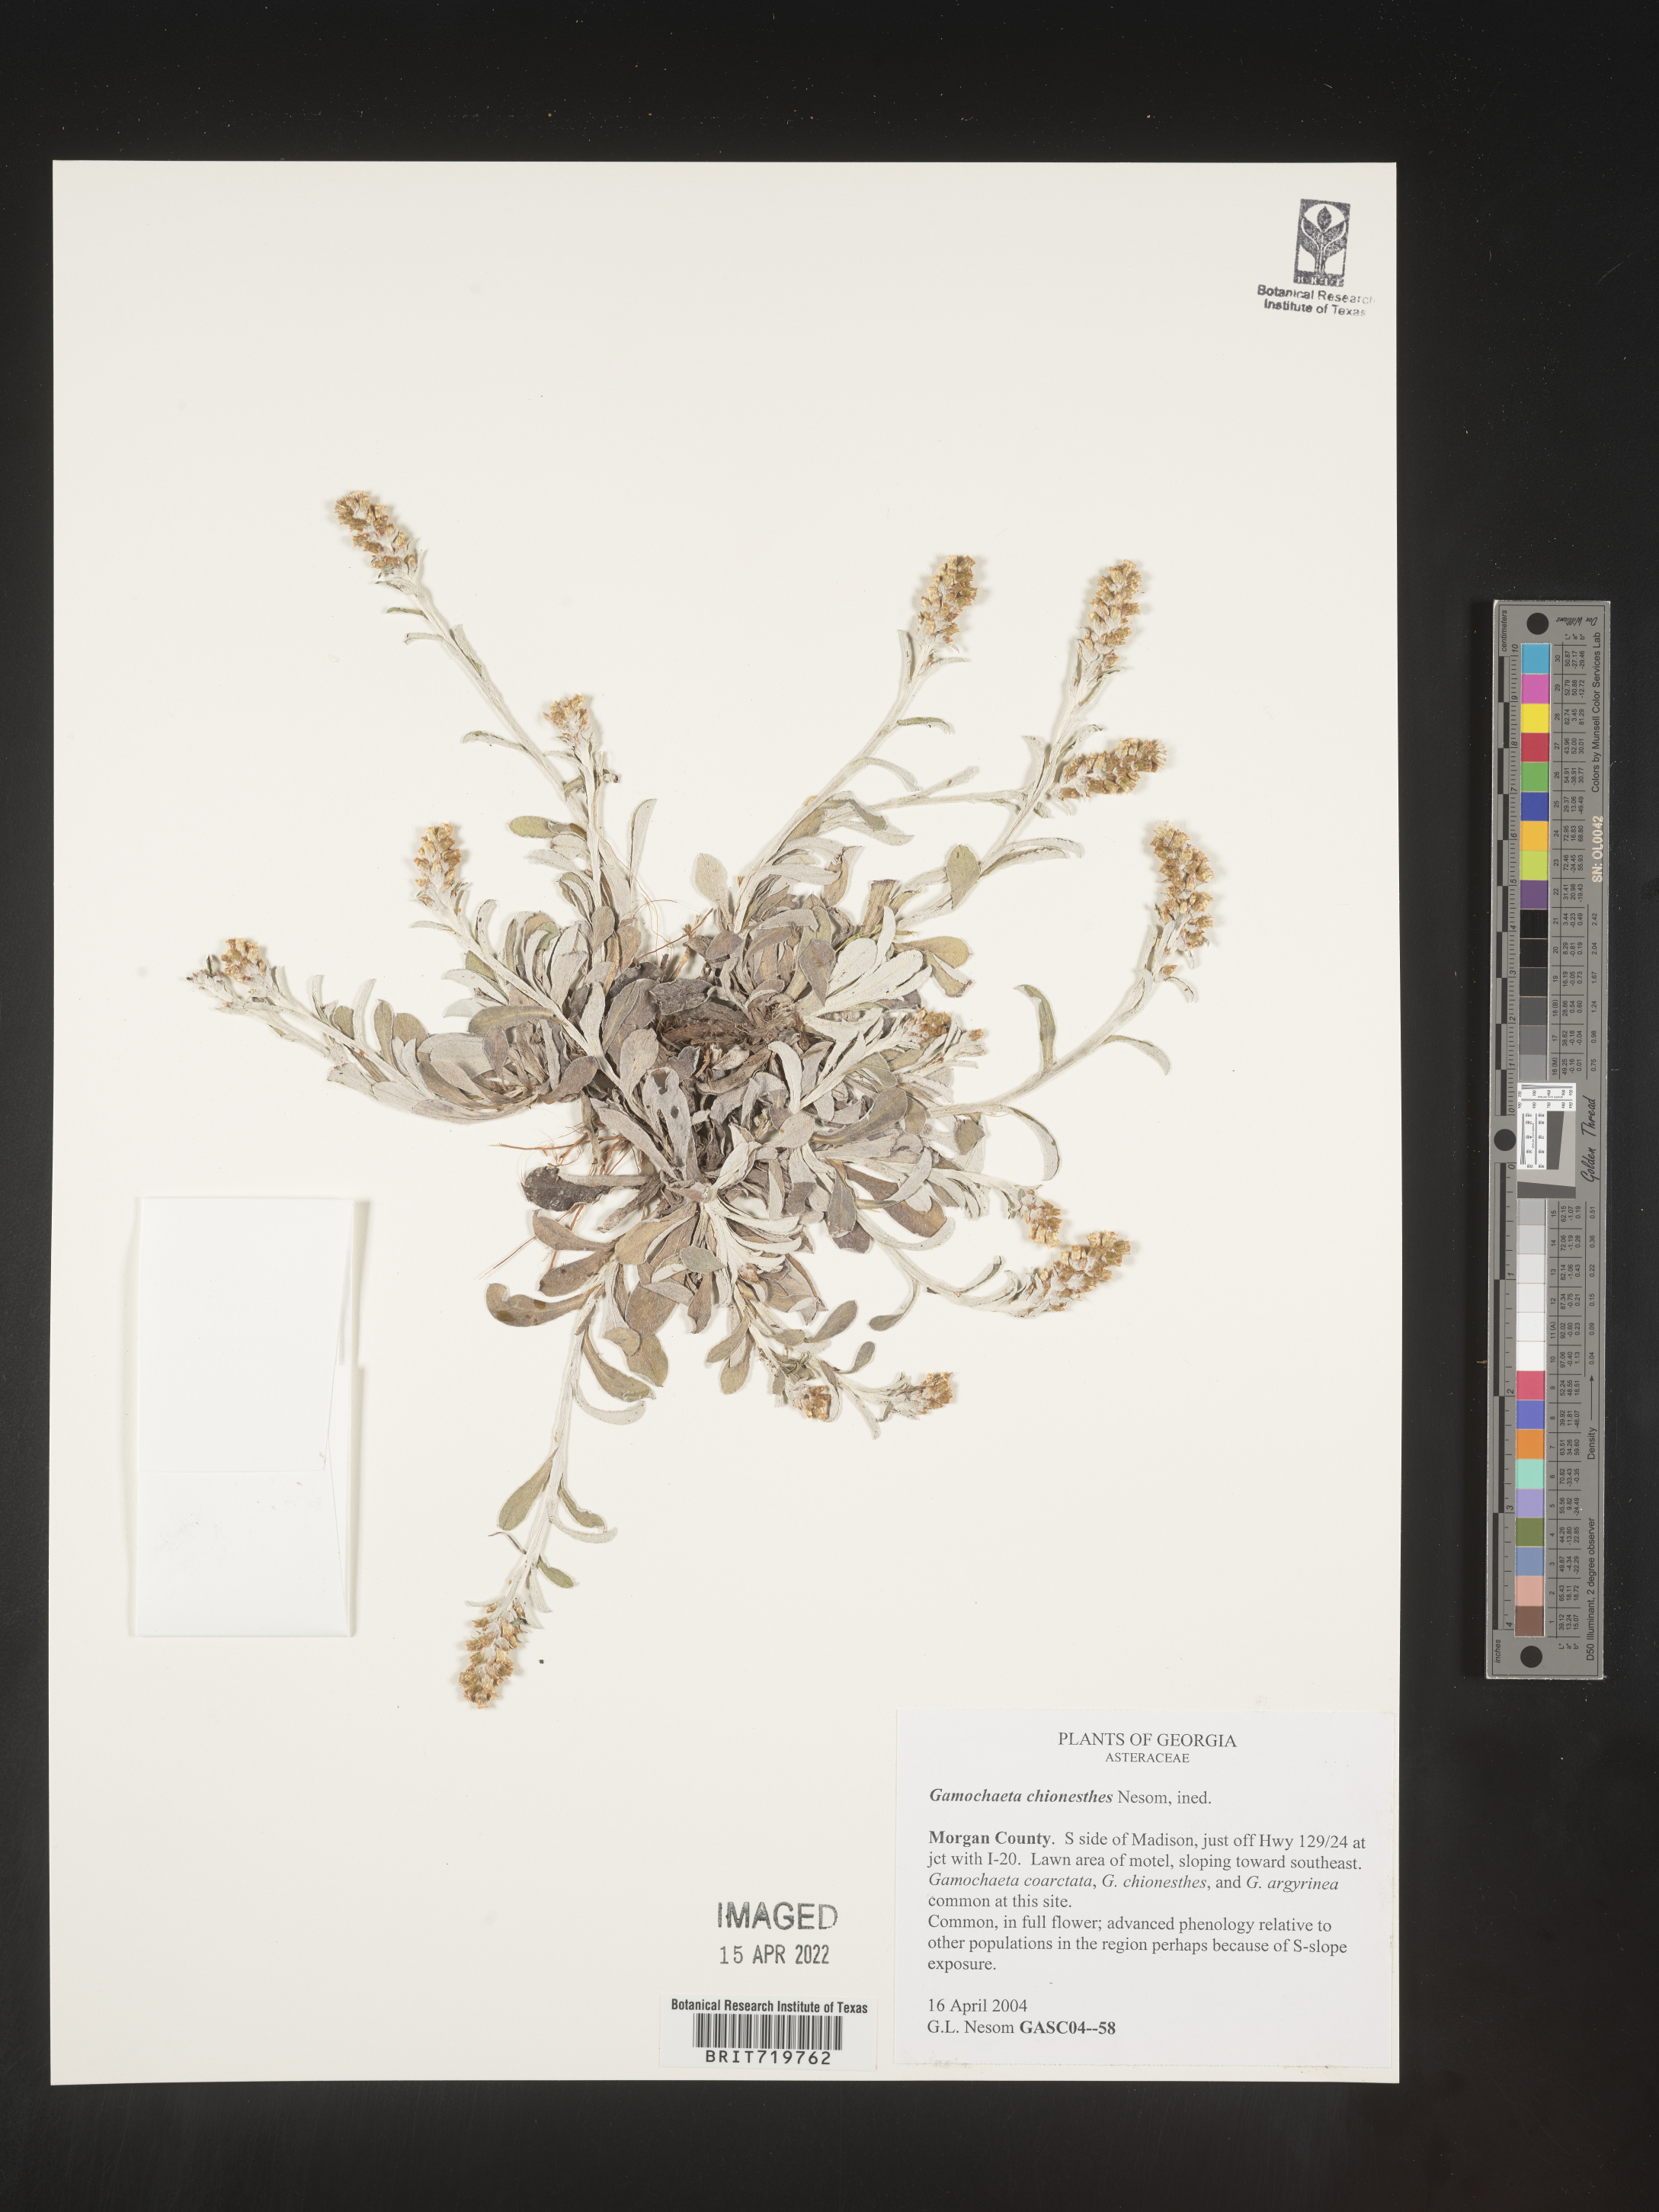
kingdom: Plantae
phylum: Tracheophyta
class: Magnoliopsida
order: Asterales
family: Asteraceae
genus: Gamochaeta
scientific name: Gamochaeta chionesthes
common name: Gray everlasting
